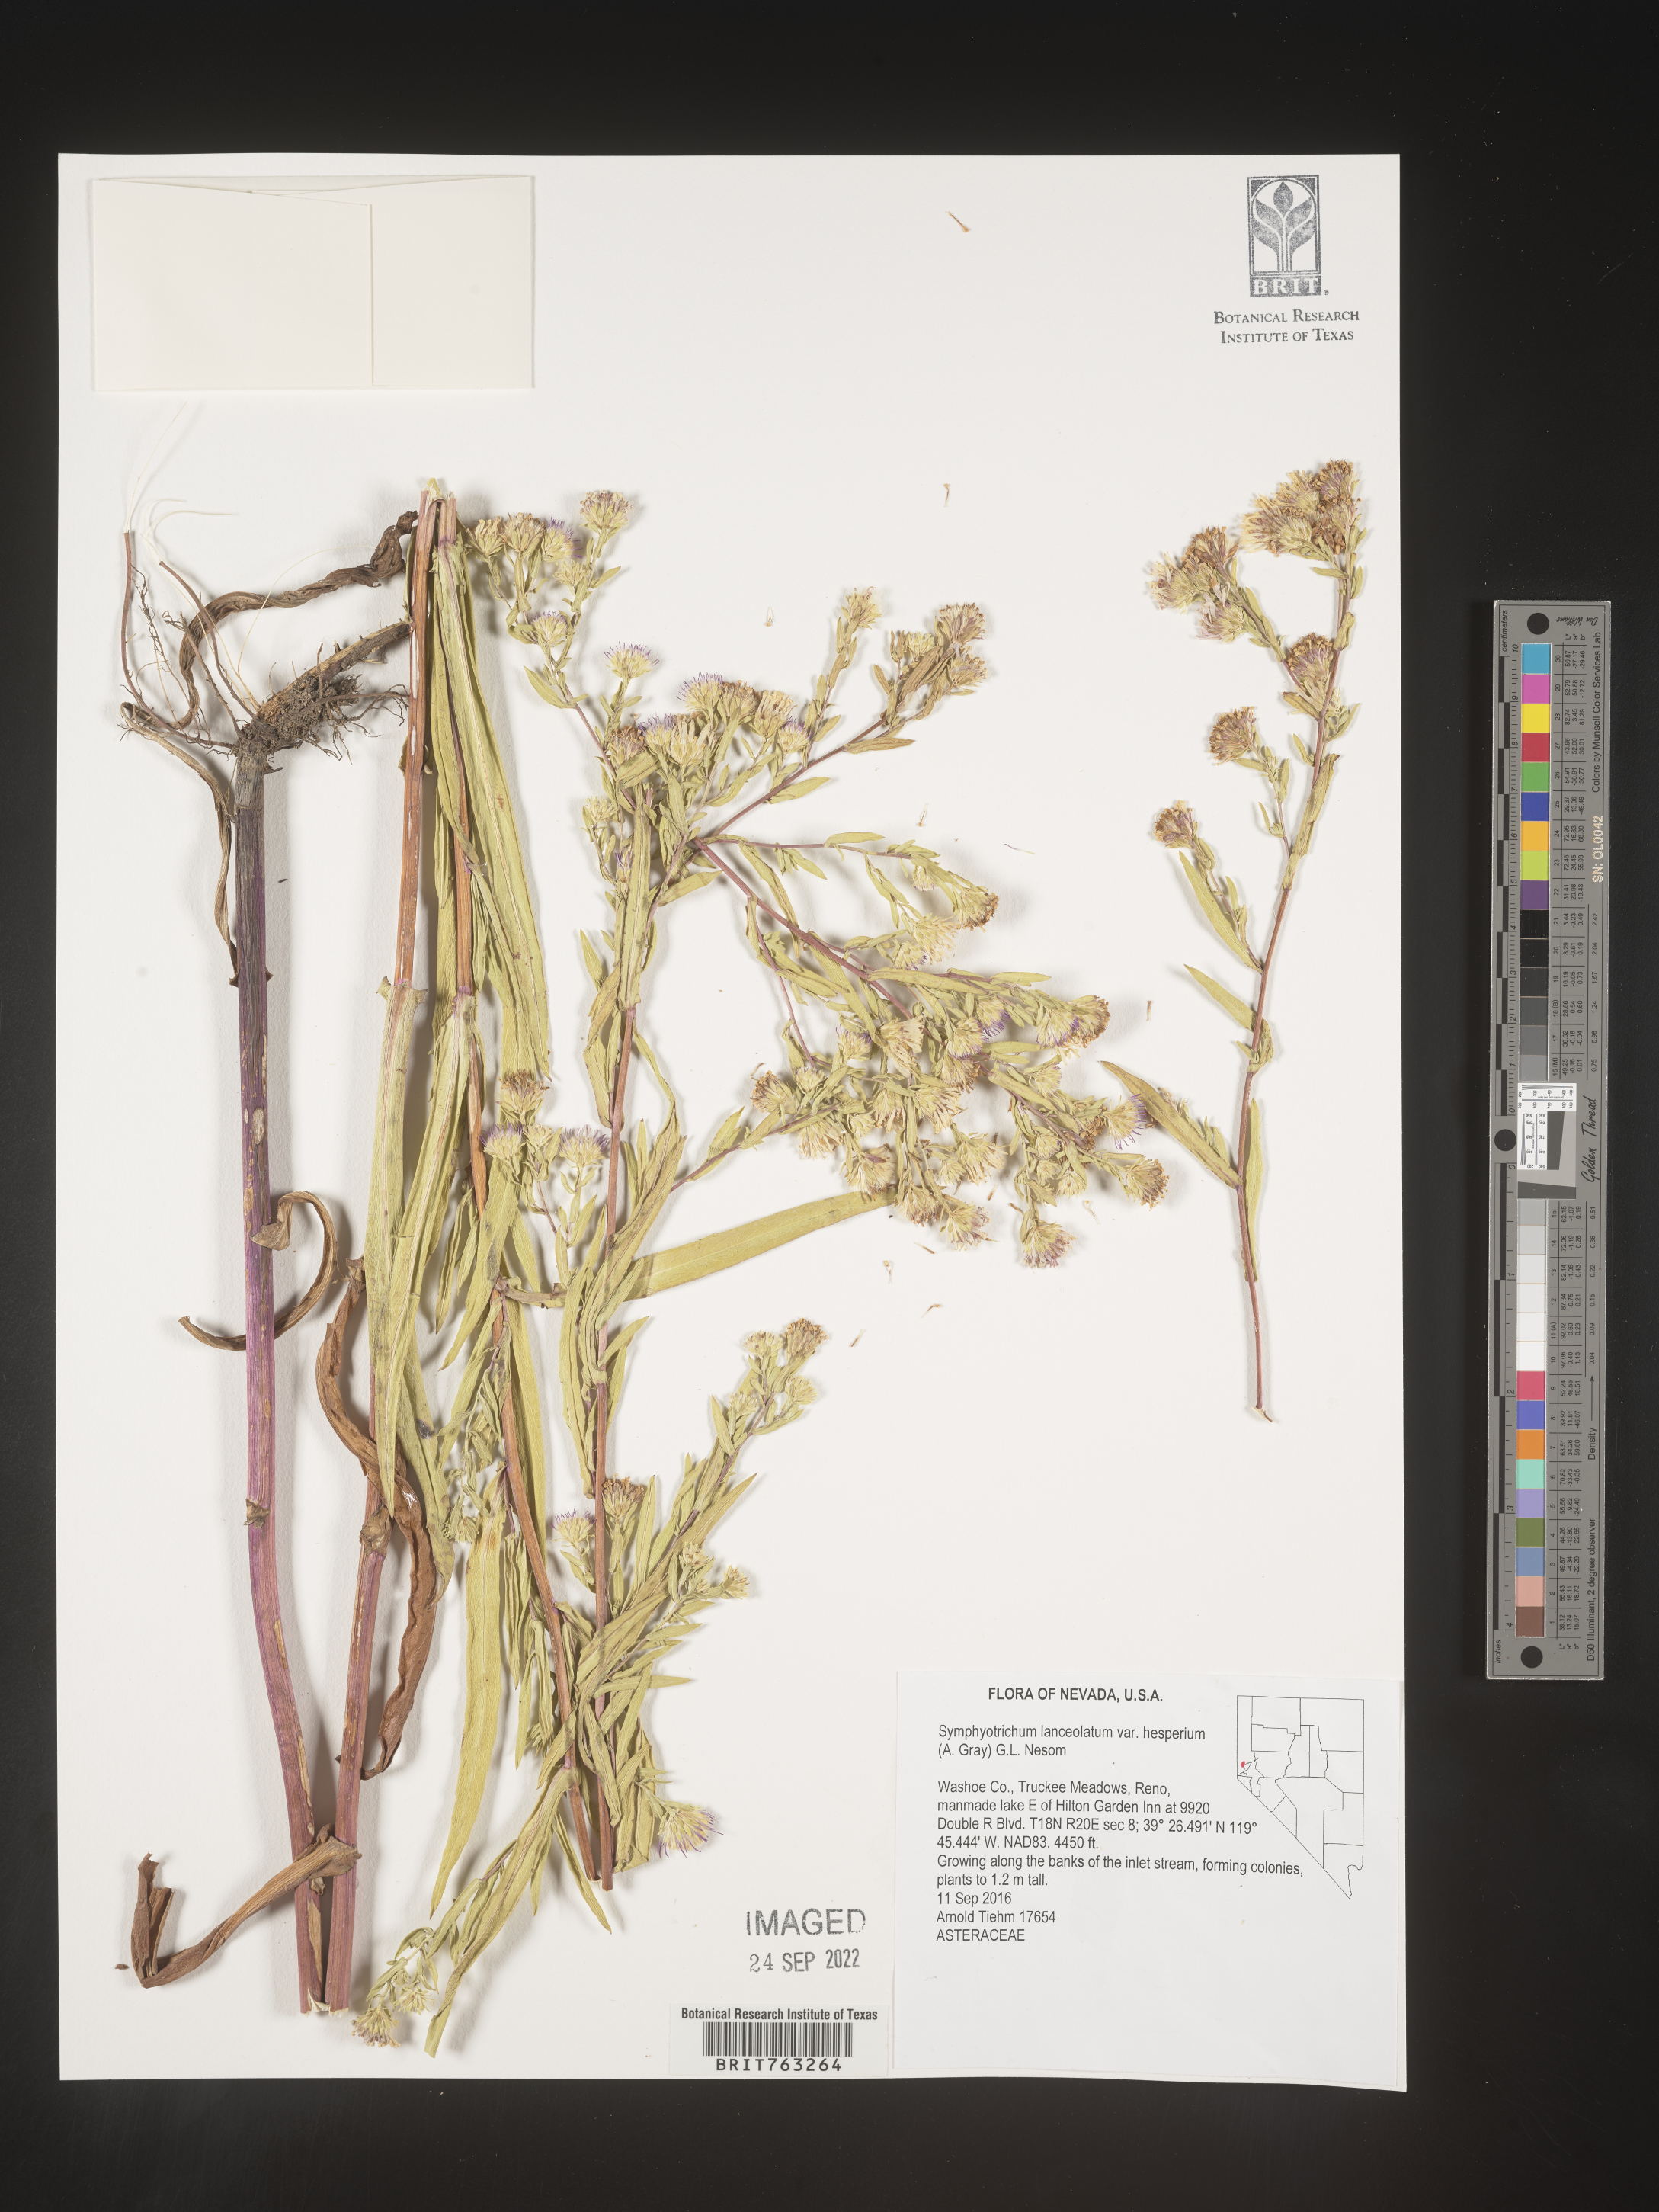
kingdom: Plantae
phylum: Tracheophyta
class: Magnoliopsida
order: Asterales
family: Asteraceae
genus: Symphyotrichum
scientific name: Symphyotrichum lanceolatum
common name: Panicled aster
